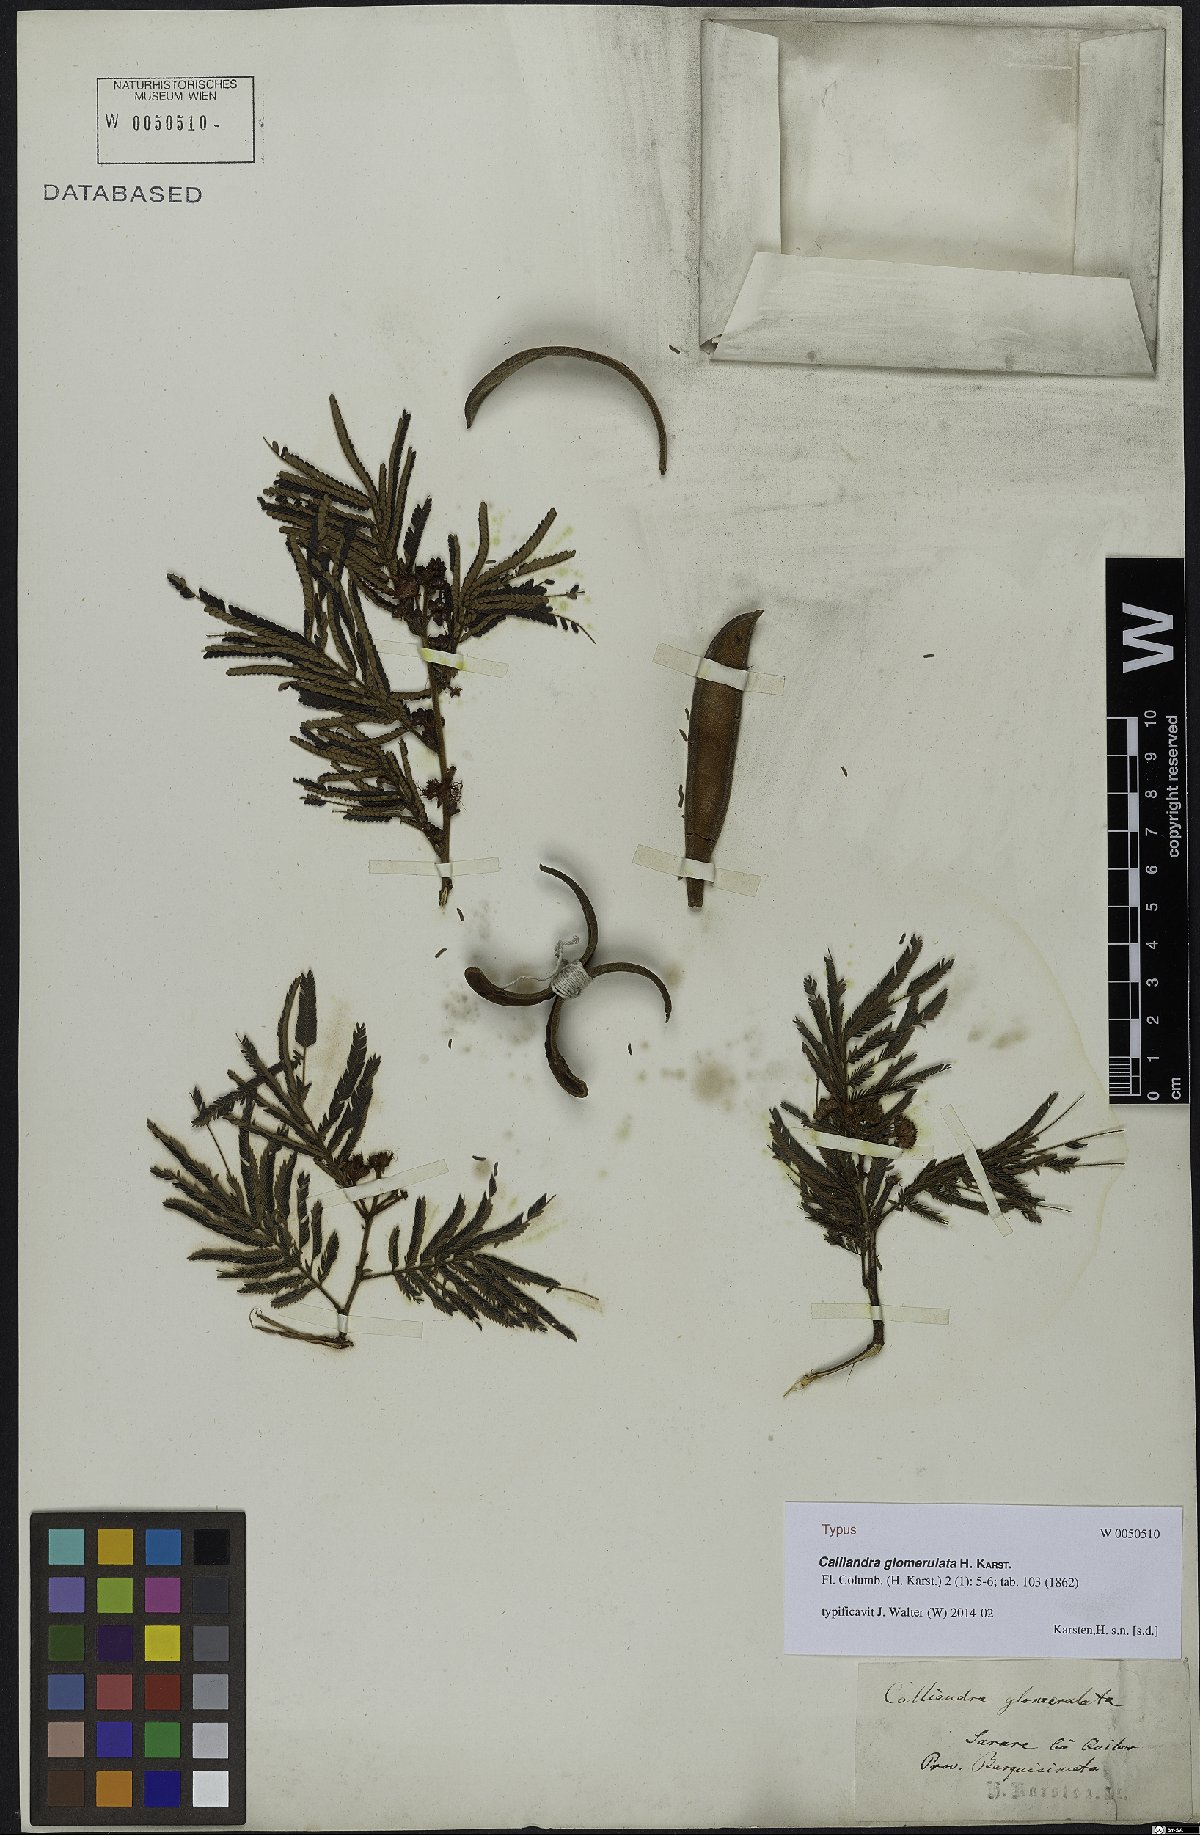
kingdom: Plantae
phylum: Tracheophyta
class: Magnoliopsida
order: Fabales
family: Fabaceae
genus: Calliandra
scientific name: Calliandra glomerulata
